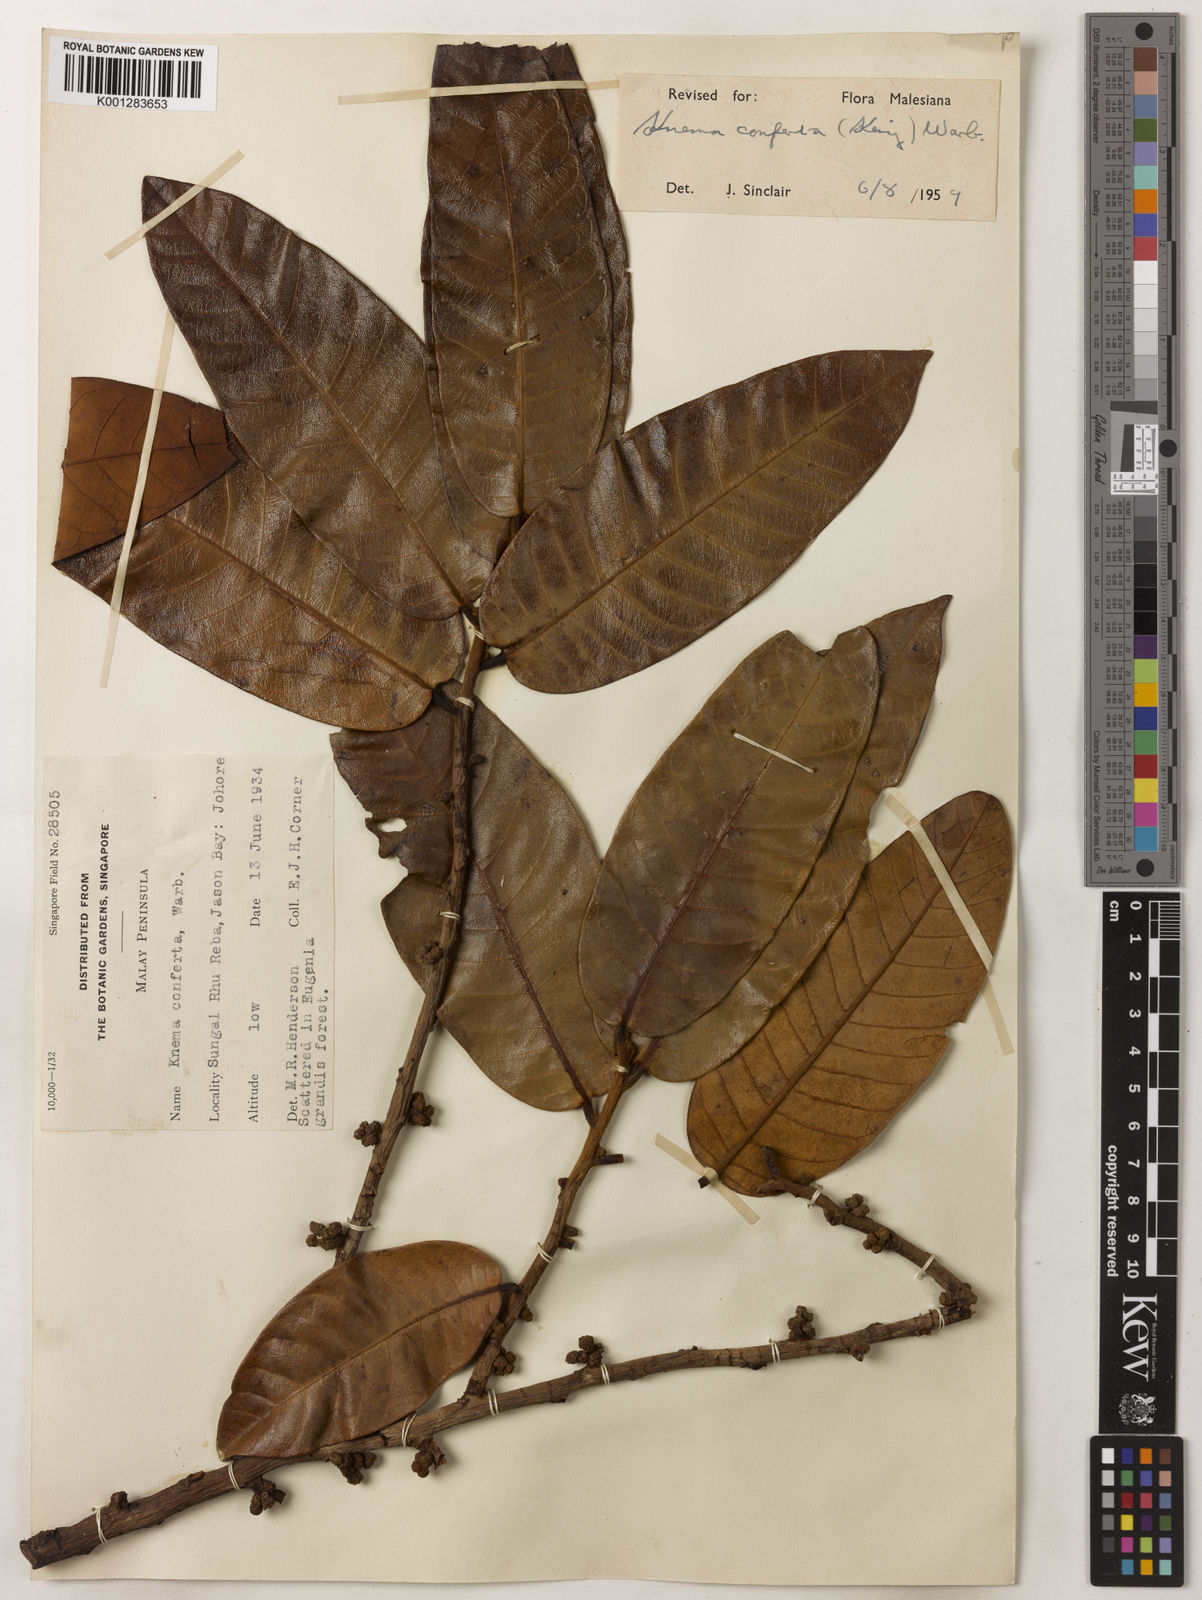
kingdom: Plantae
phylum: Tracheophyta
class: Magnoliopsida
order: Magnoliales
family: Myristicaceae
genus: Knema
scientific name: Knema conferta
